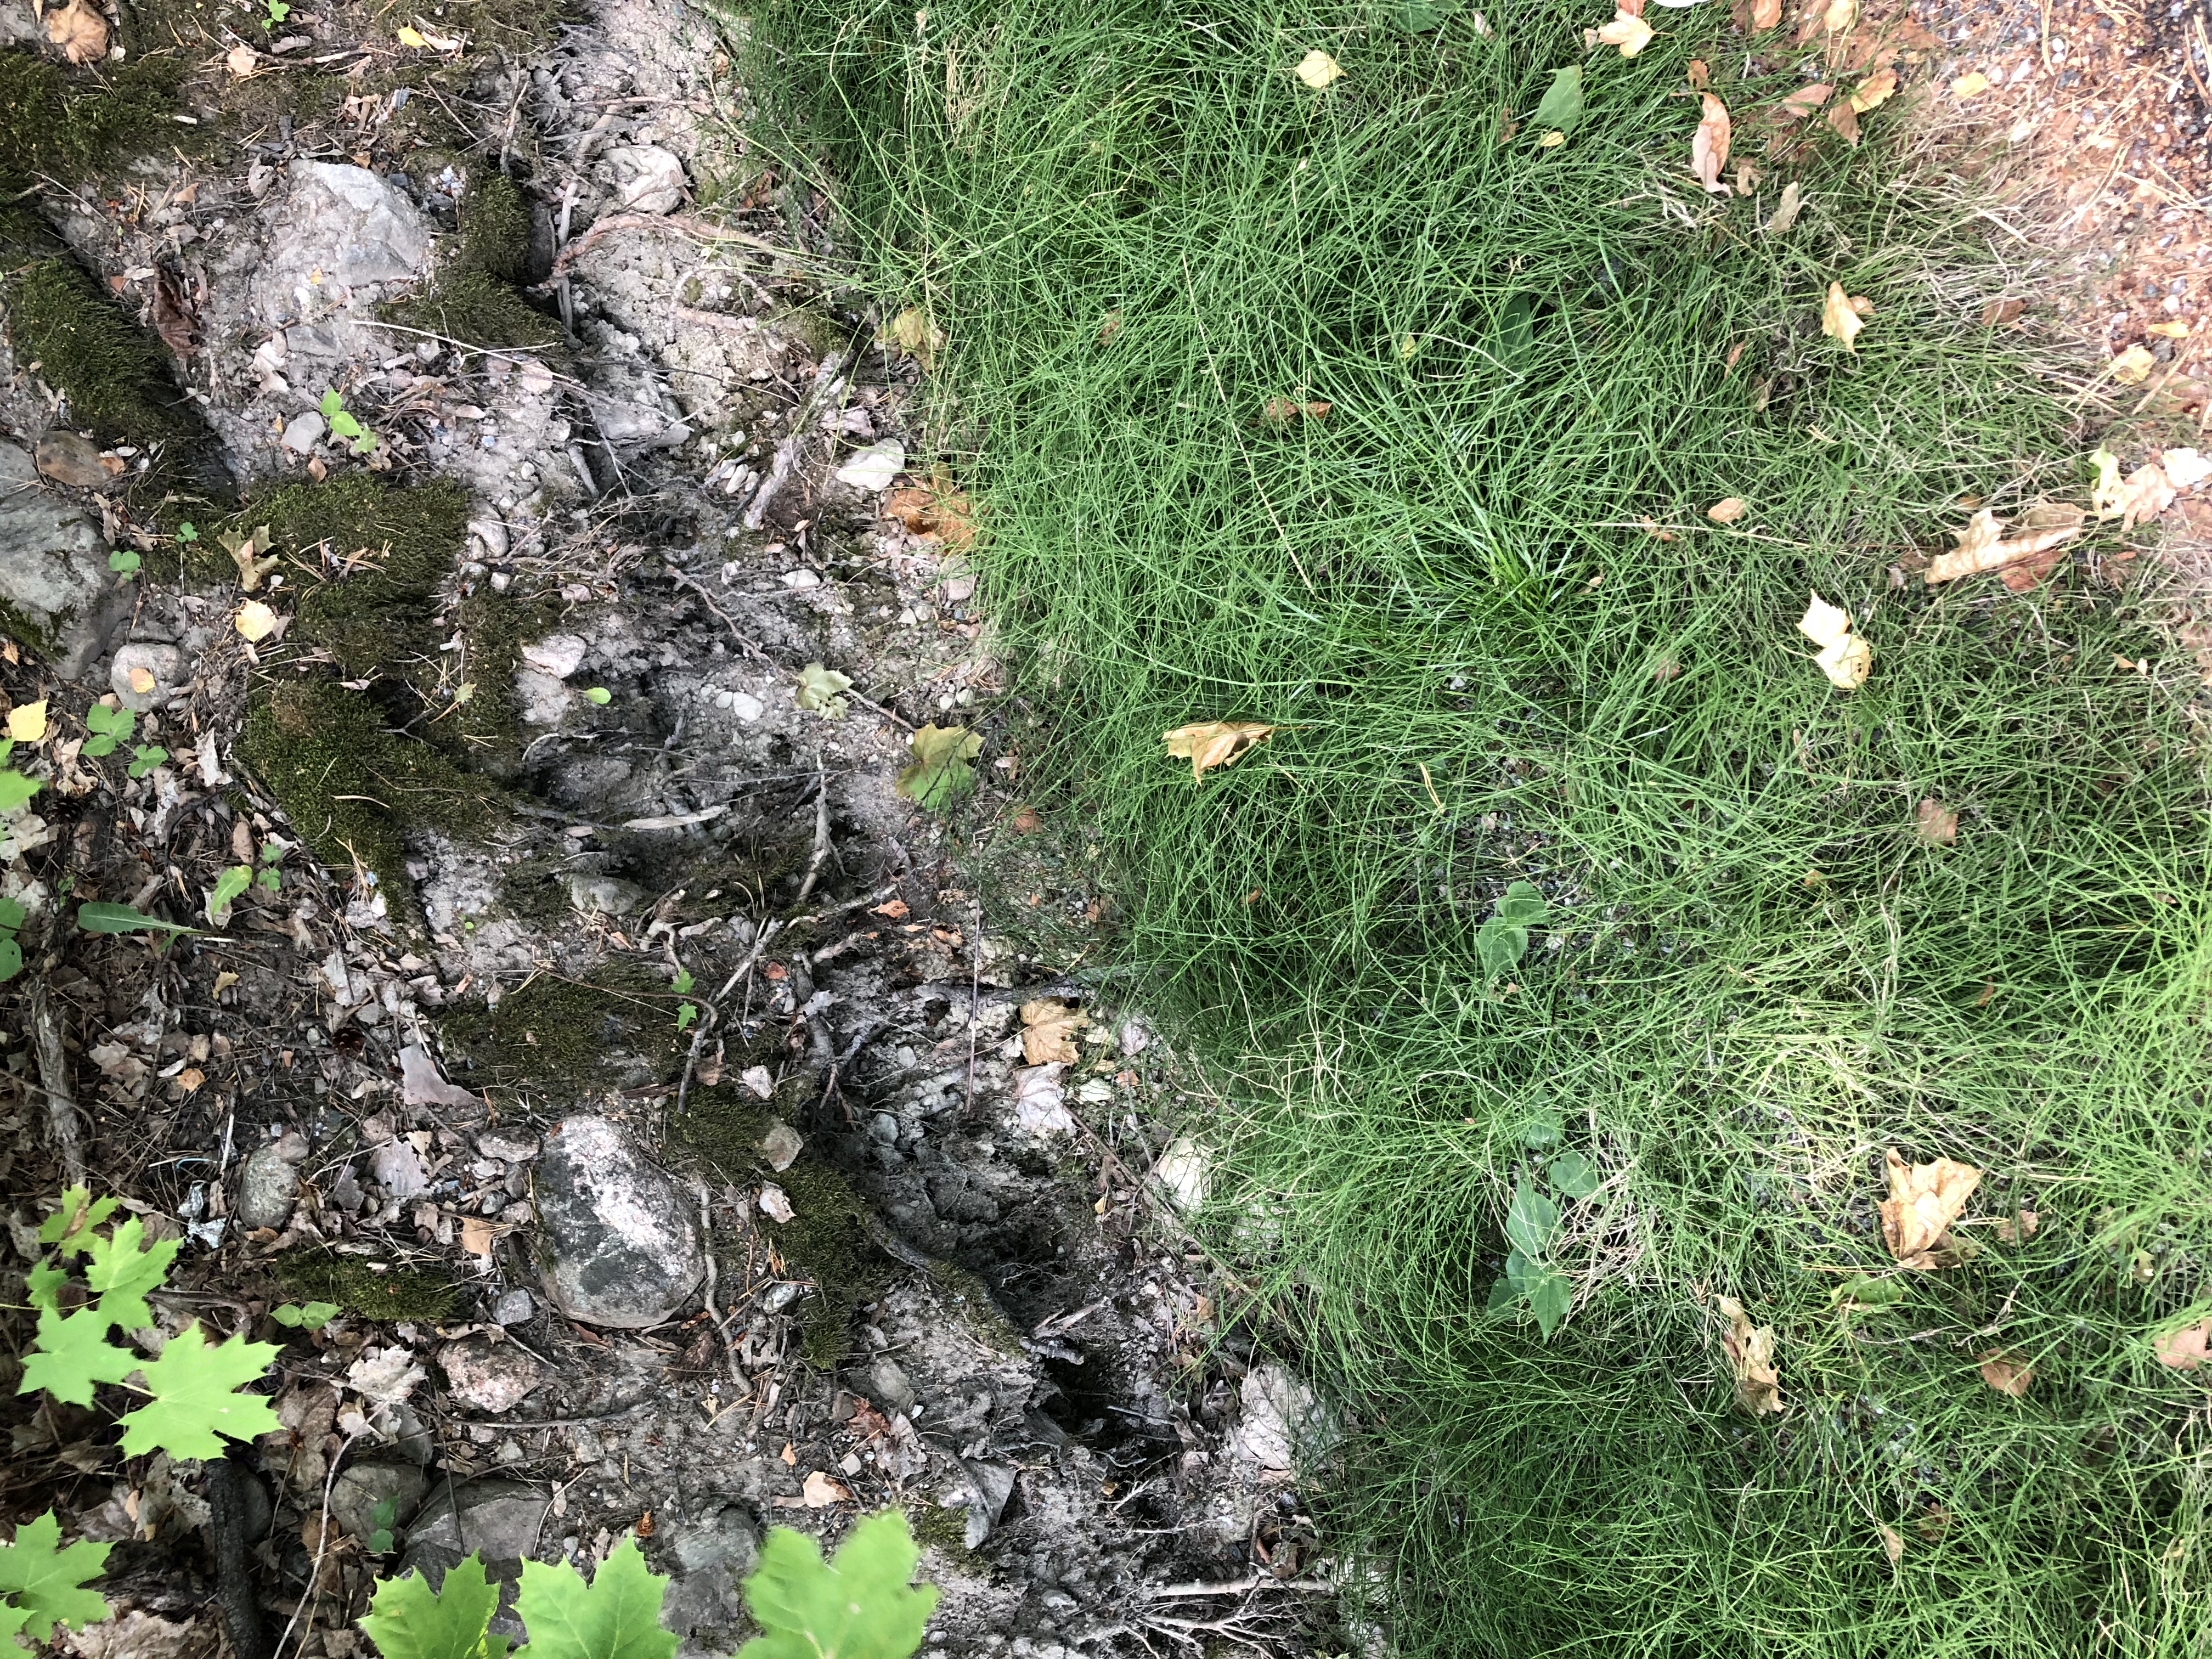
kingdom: Plantae
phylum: Tracheophyta
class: Polypodiopsida
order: Equisetales
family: Equisetaceae
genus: Equisetum
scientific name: Equisetum arvense
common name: Field horsetail
